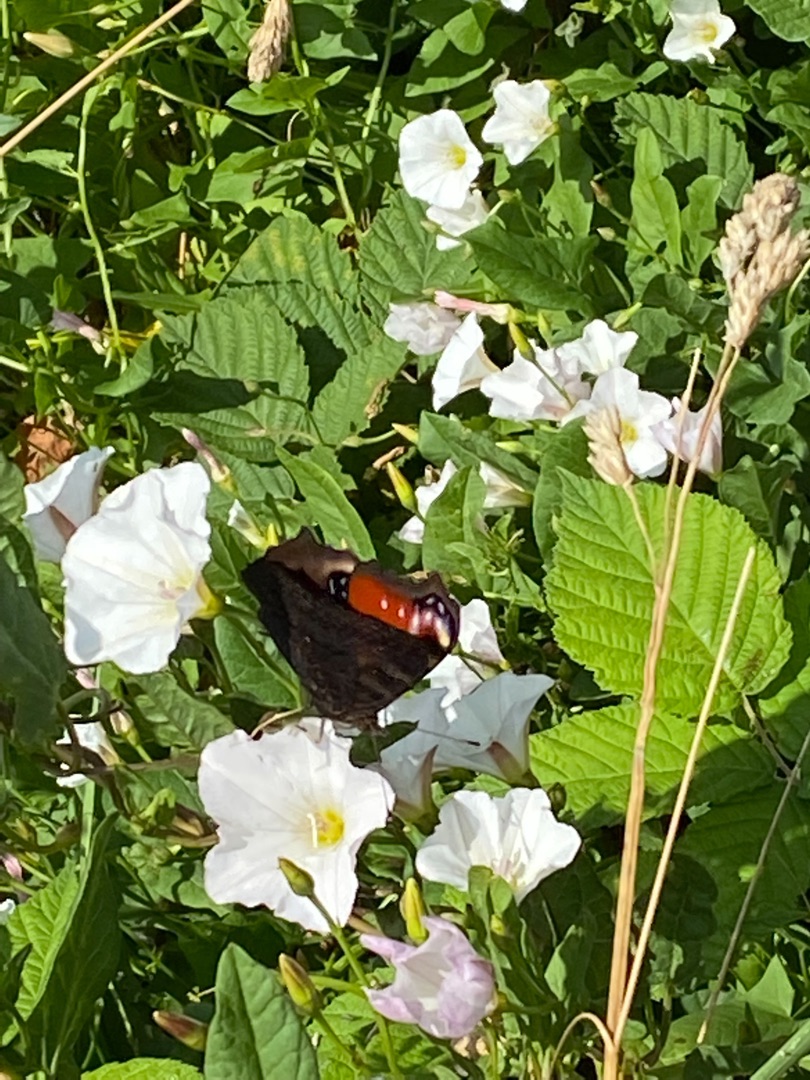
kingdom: Animalia
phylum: Arthropoda
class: Insecta
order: Lepidoptera
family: Nymphalidae
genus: Aglais
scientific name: Aglais io
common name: Dagpåfugleøje
